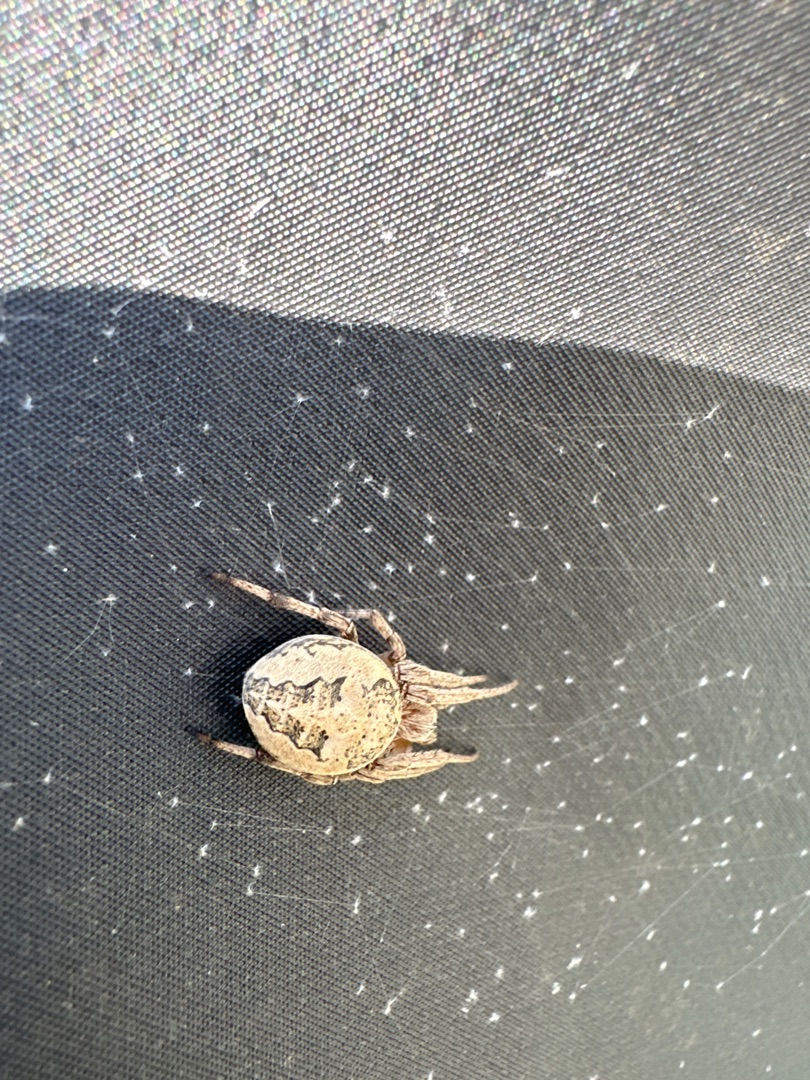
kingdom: Animalia
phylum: Arthropoda
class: Arachnida
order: Araneae
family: Araneidae
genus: Larinioides
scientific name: Larinioides
